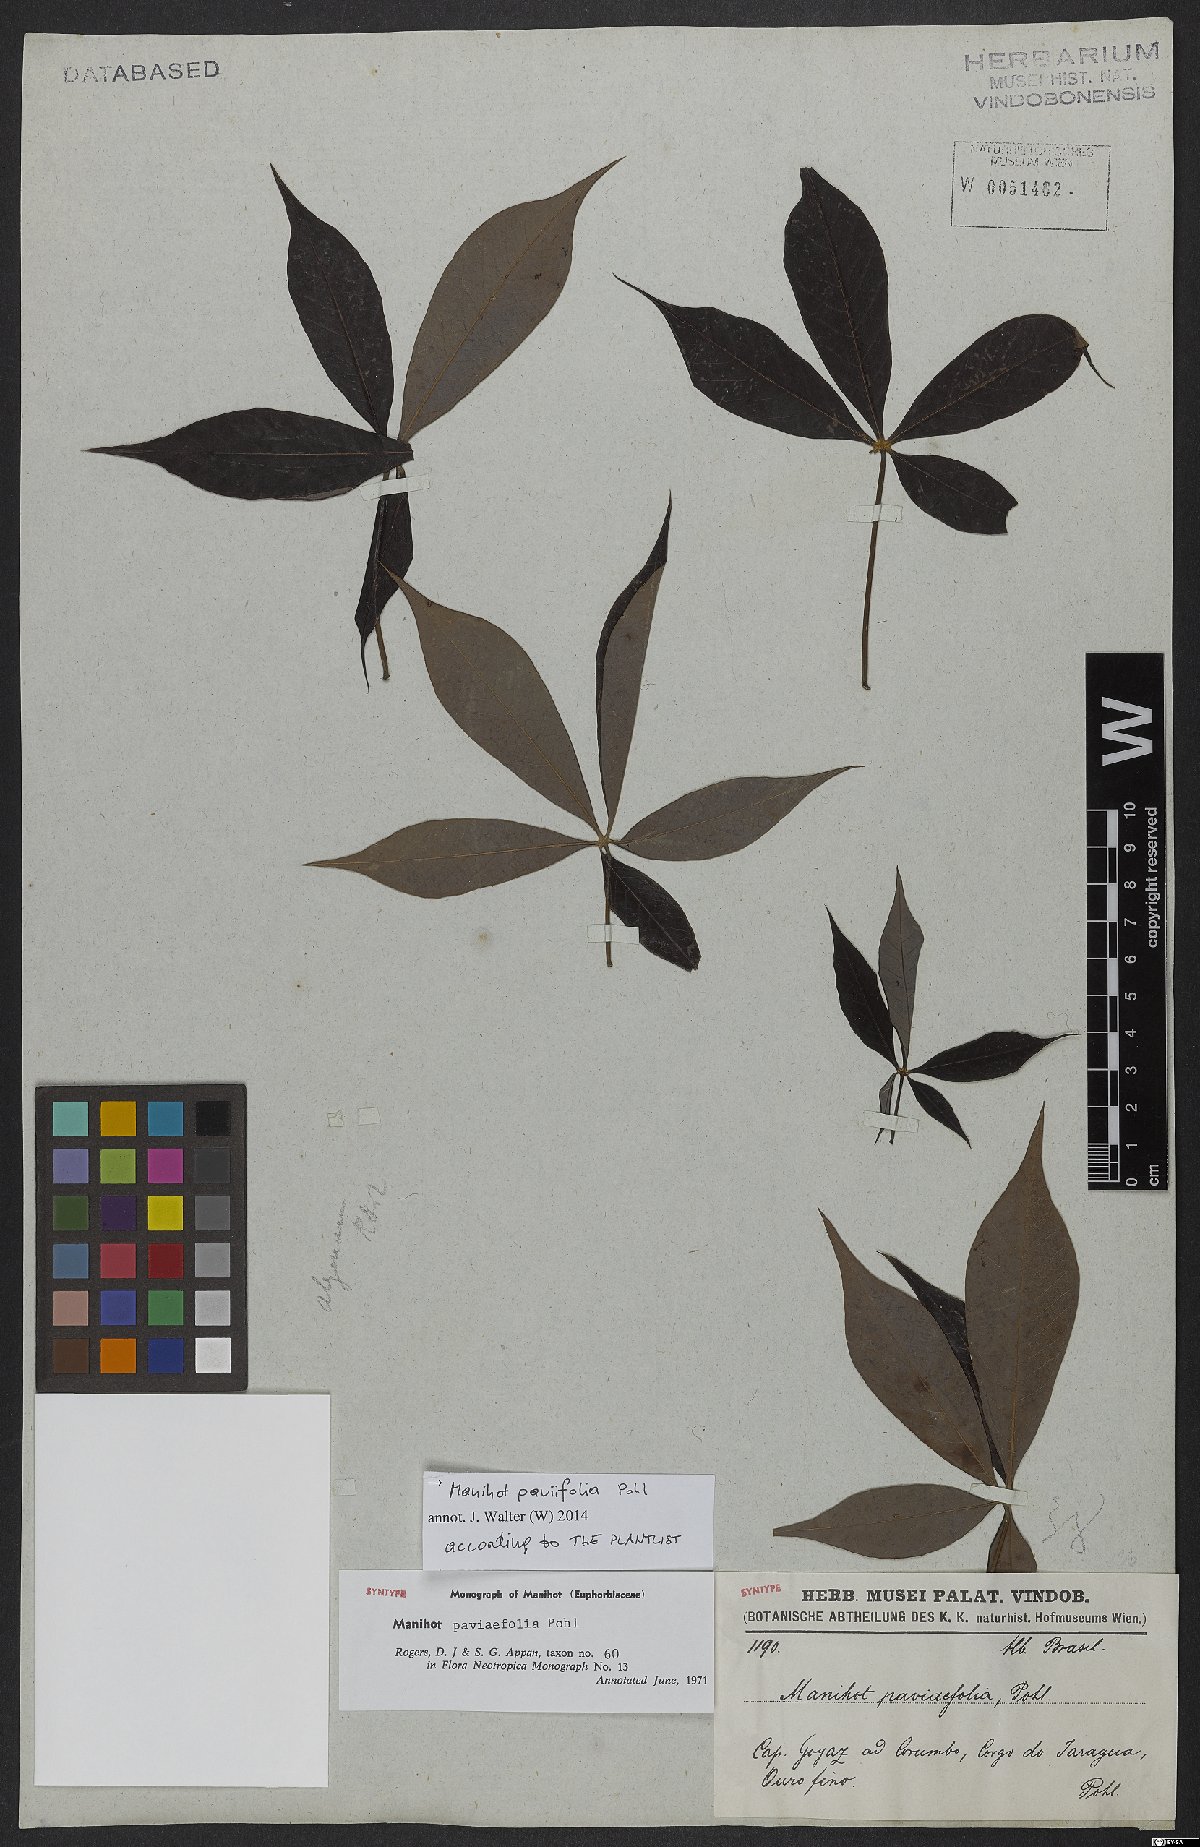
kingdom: Plantae
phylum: Tracheophyta
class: Magnoliopsida
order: Malpighiales
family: Euphorbiaceae
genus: Manihot
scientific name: Manihot paviifolia
